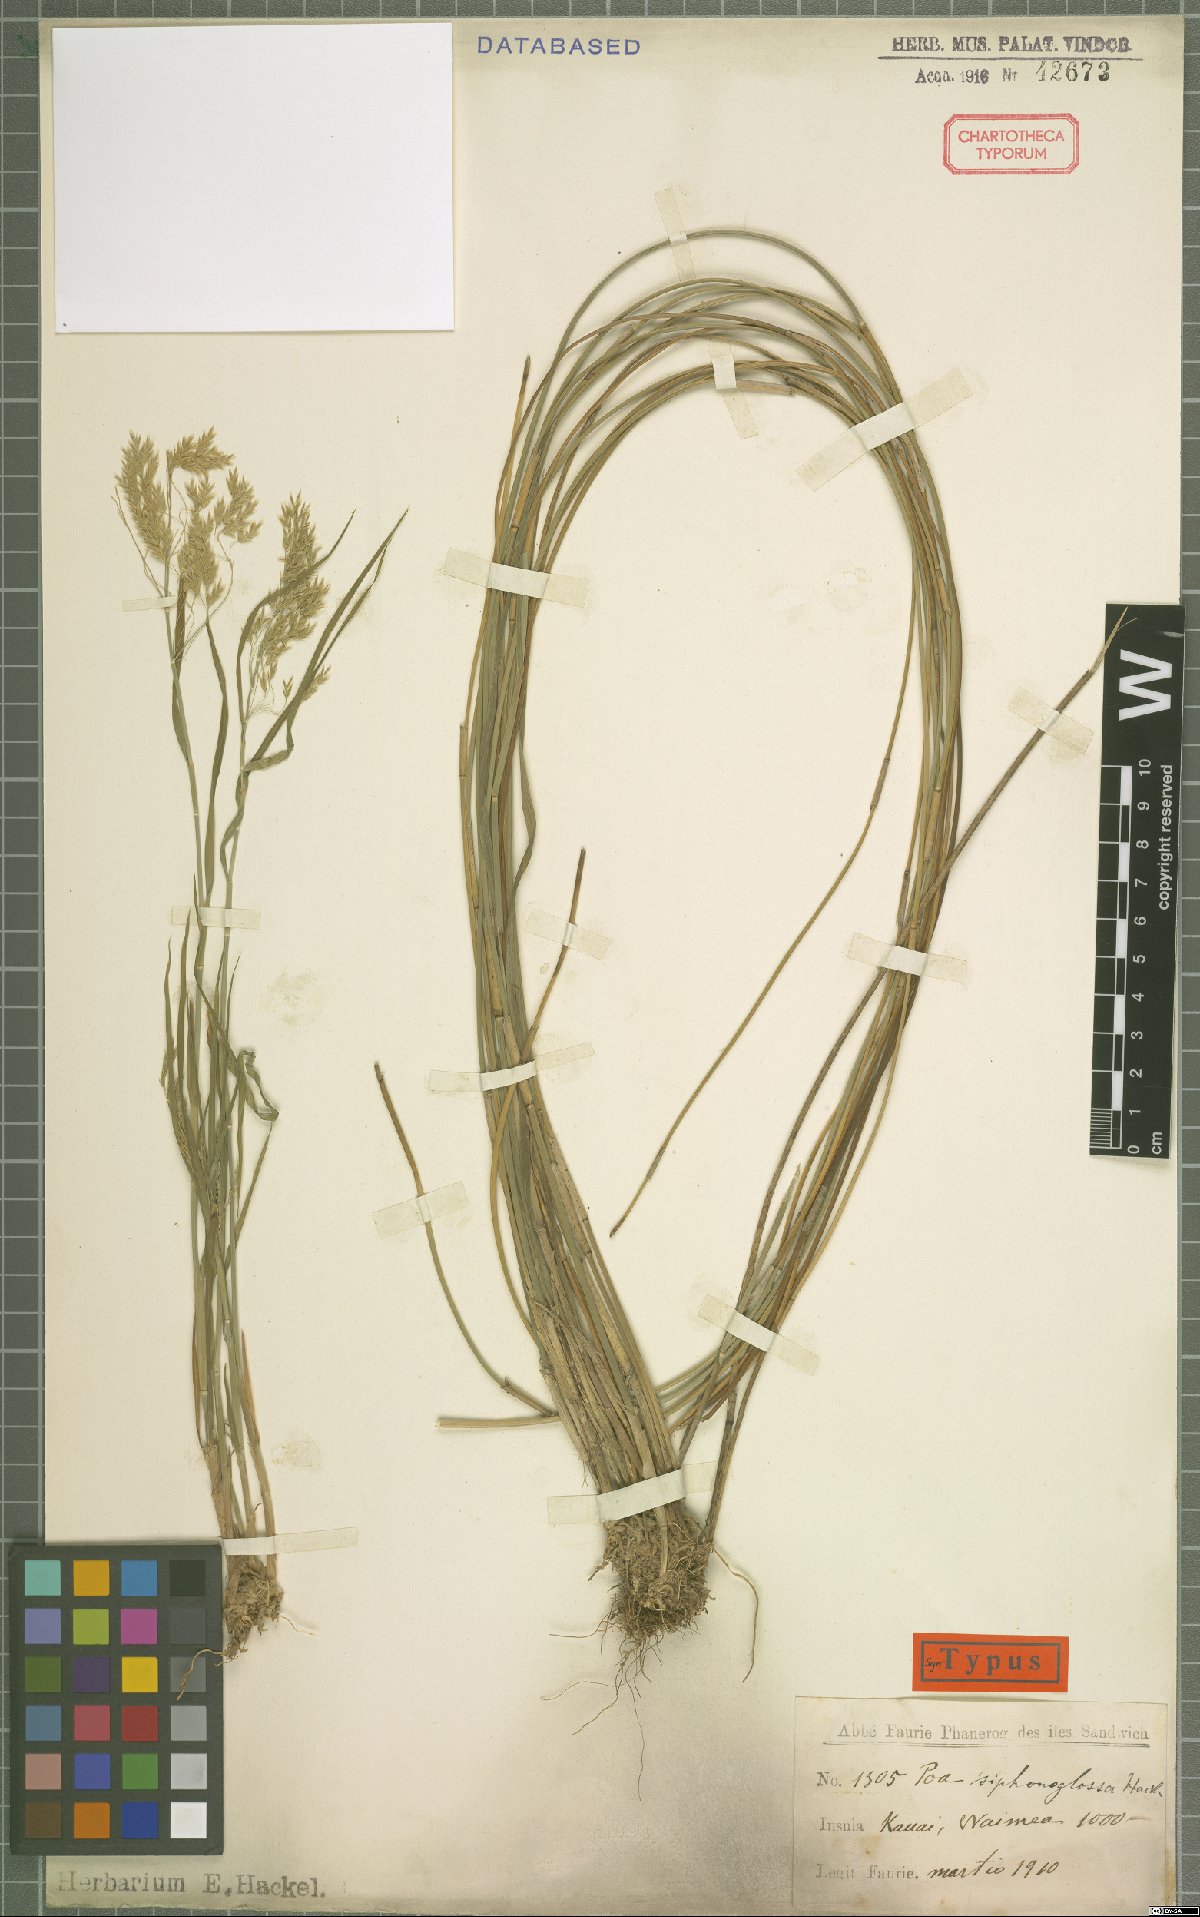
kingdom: Plantae
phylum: Tracheophyta
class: Liliopsida
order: Poales
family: Poaceae
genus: Poa
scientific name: Poa siphonoglossa
